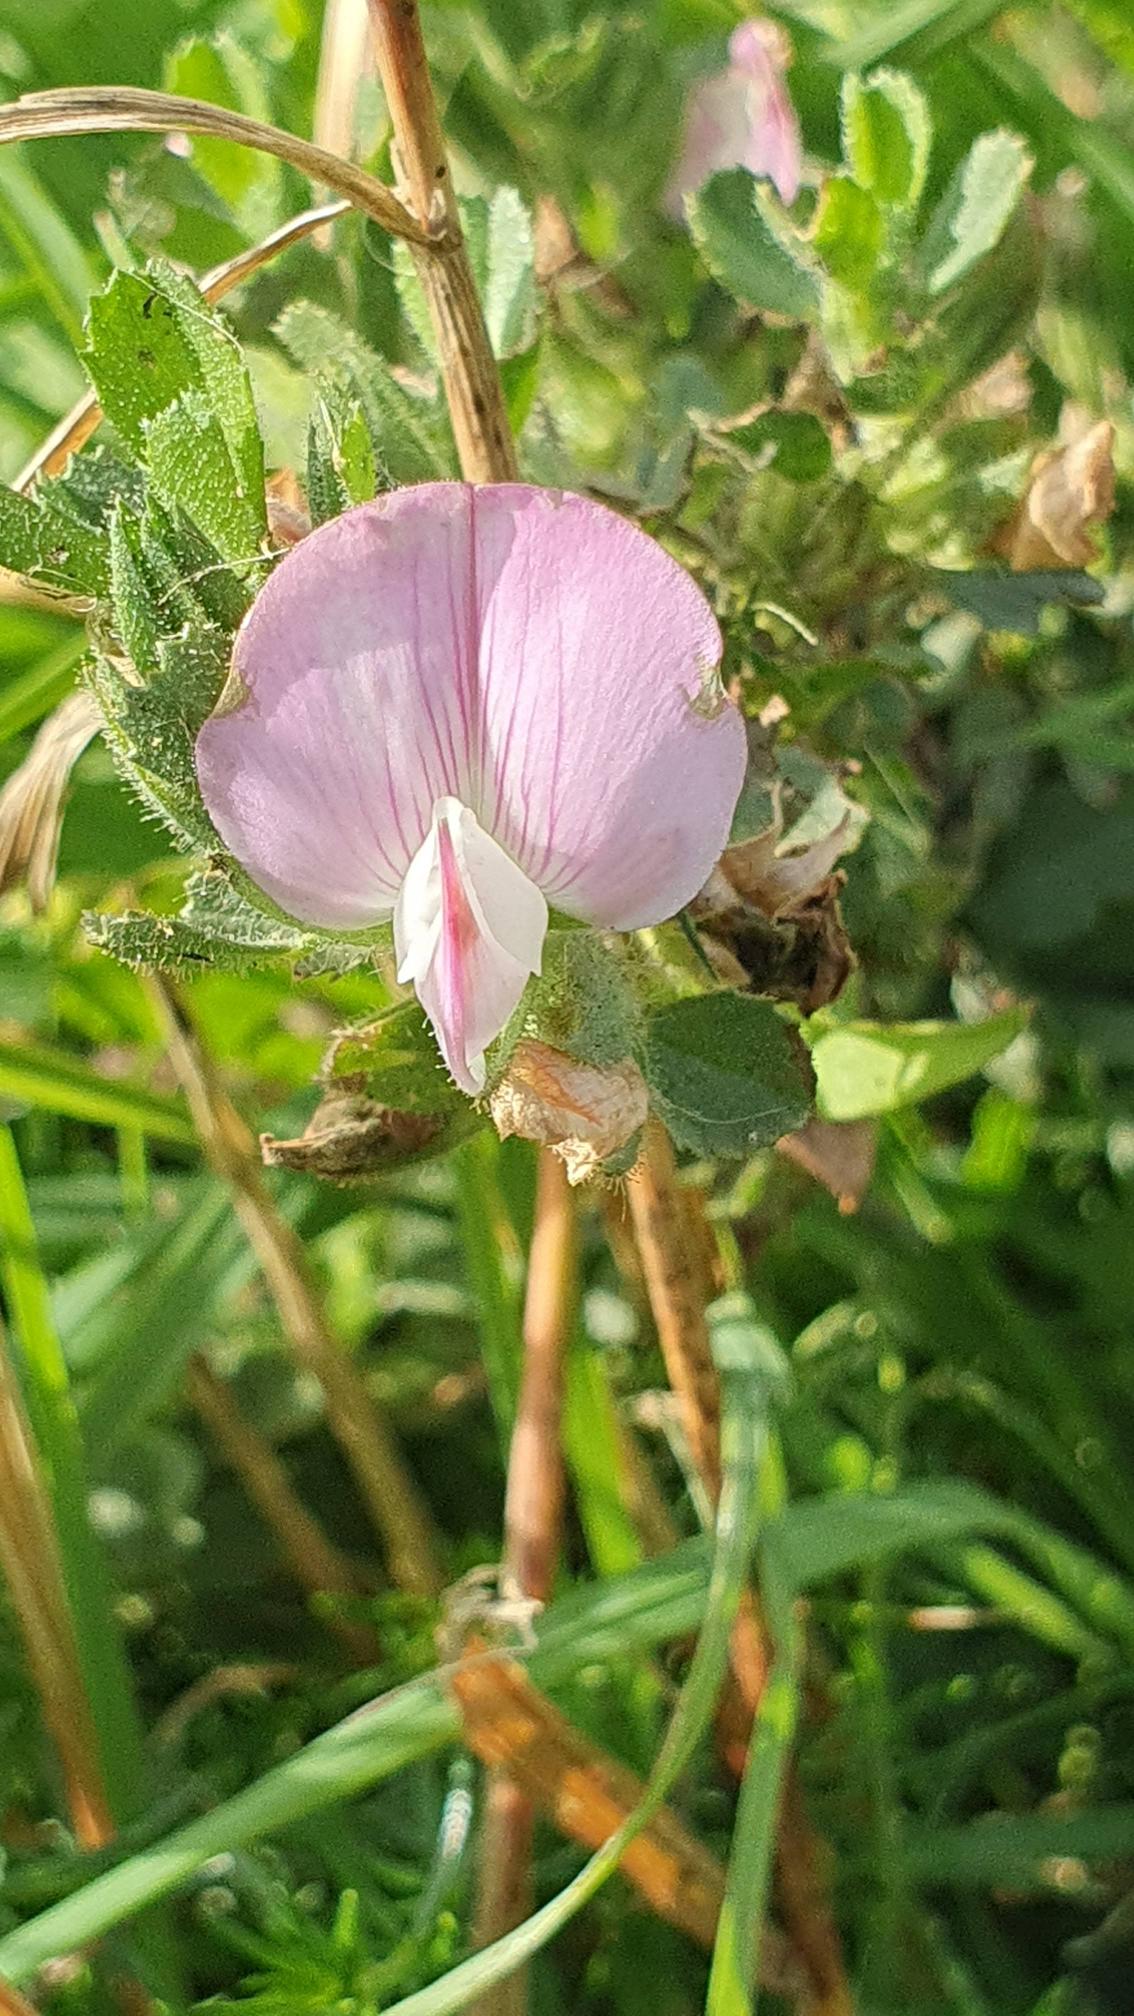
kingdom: Plantae
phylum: Tracheophyta
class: Magnoliopsida
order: Fabales
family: Fabaceae
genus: Ononis
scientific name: Ononis spinosa
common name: Krageklo
